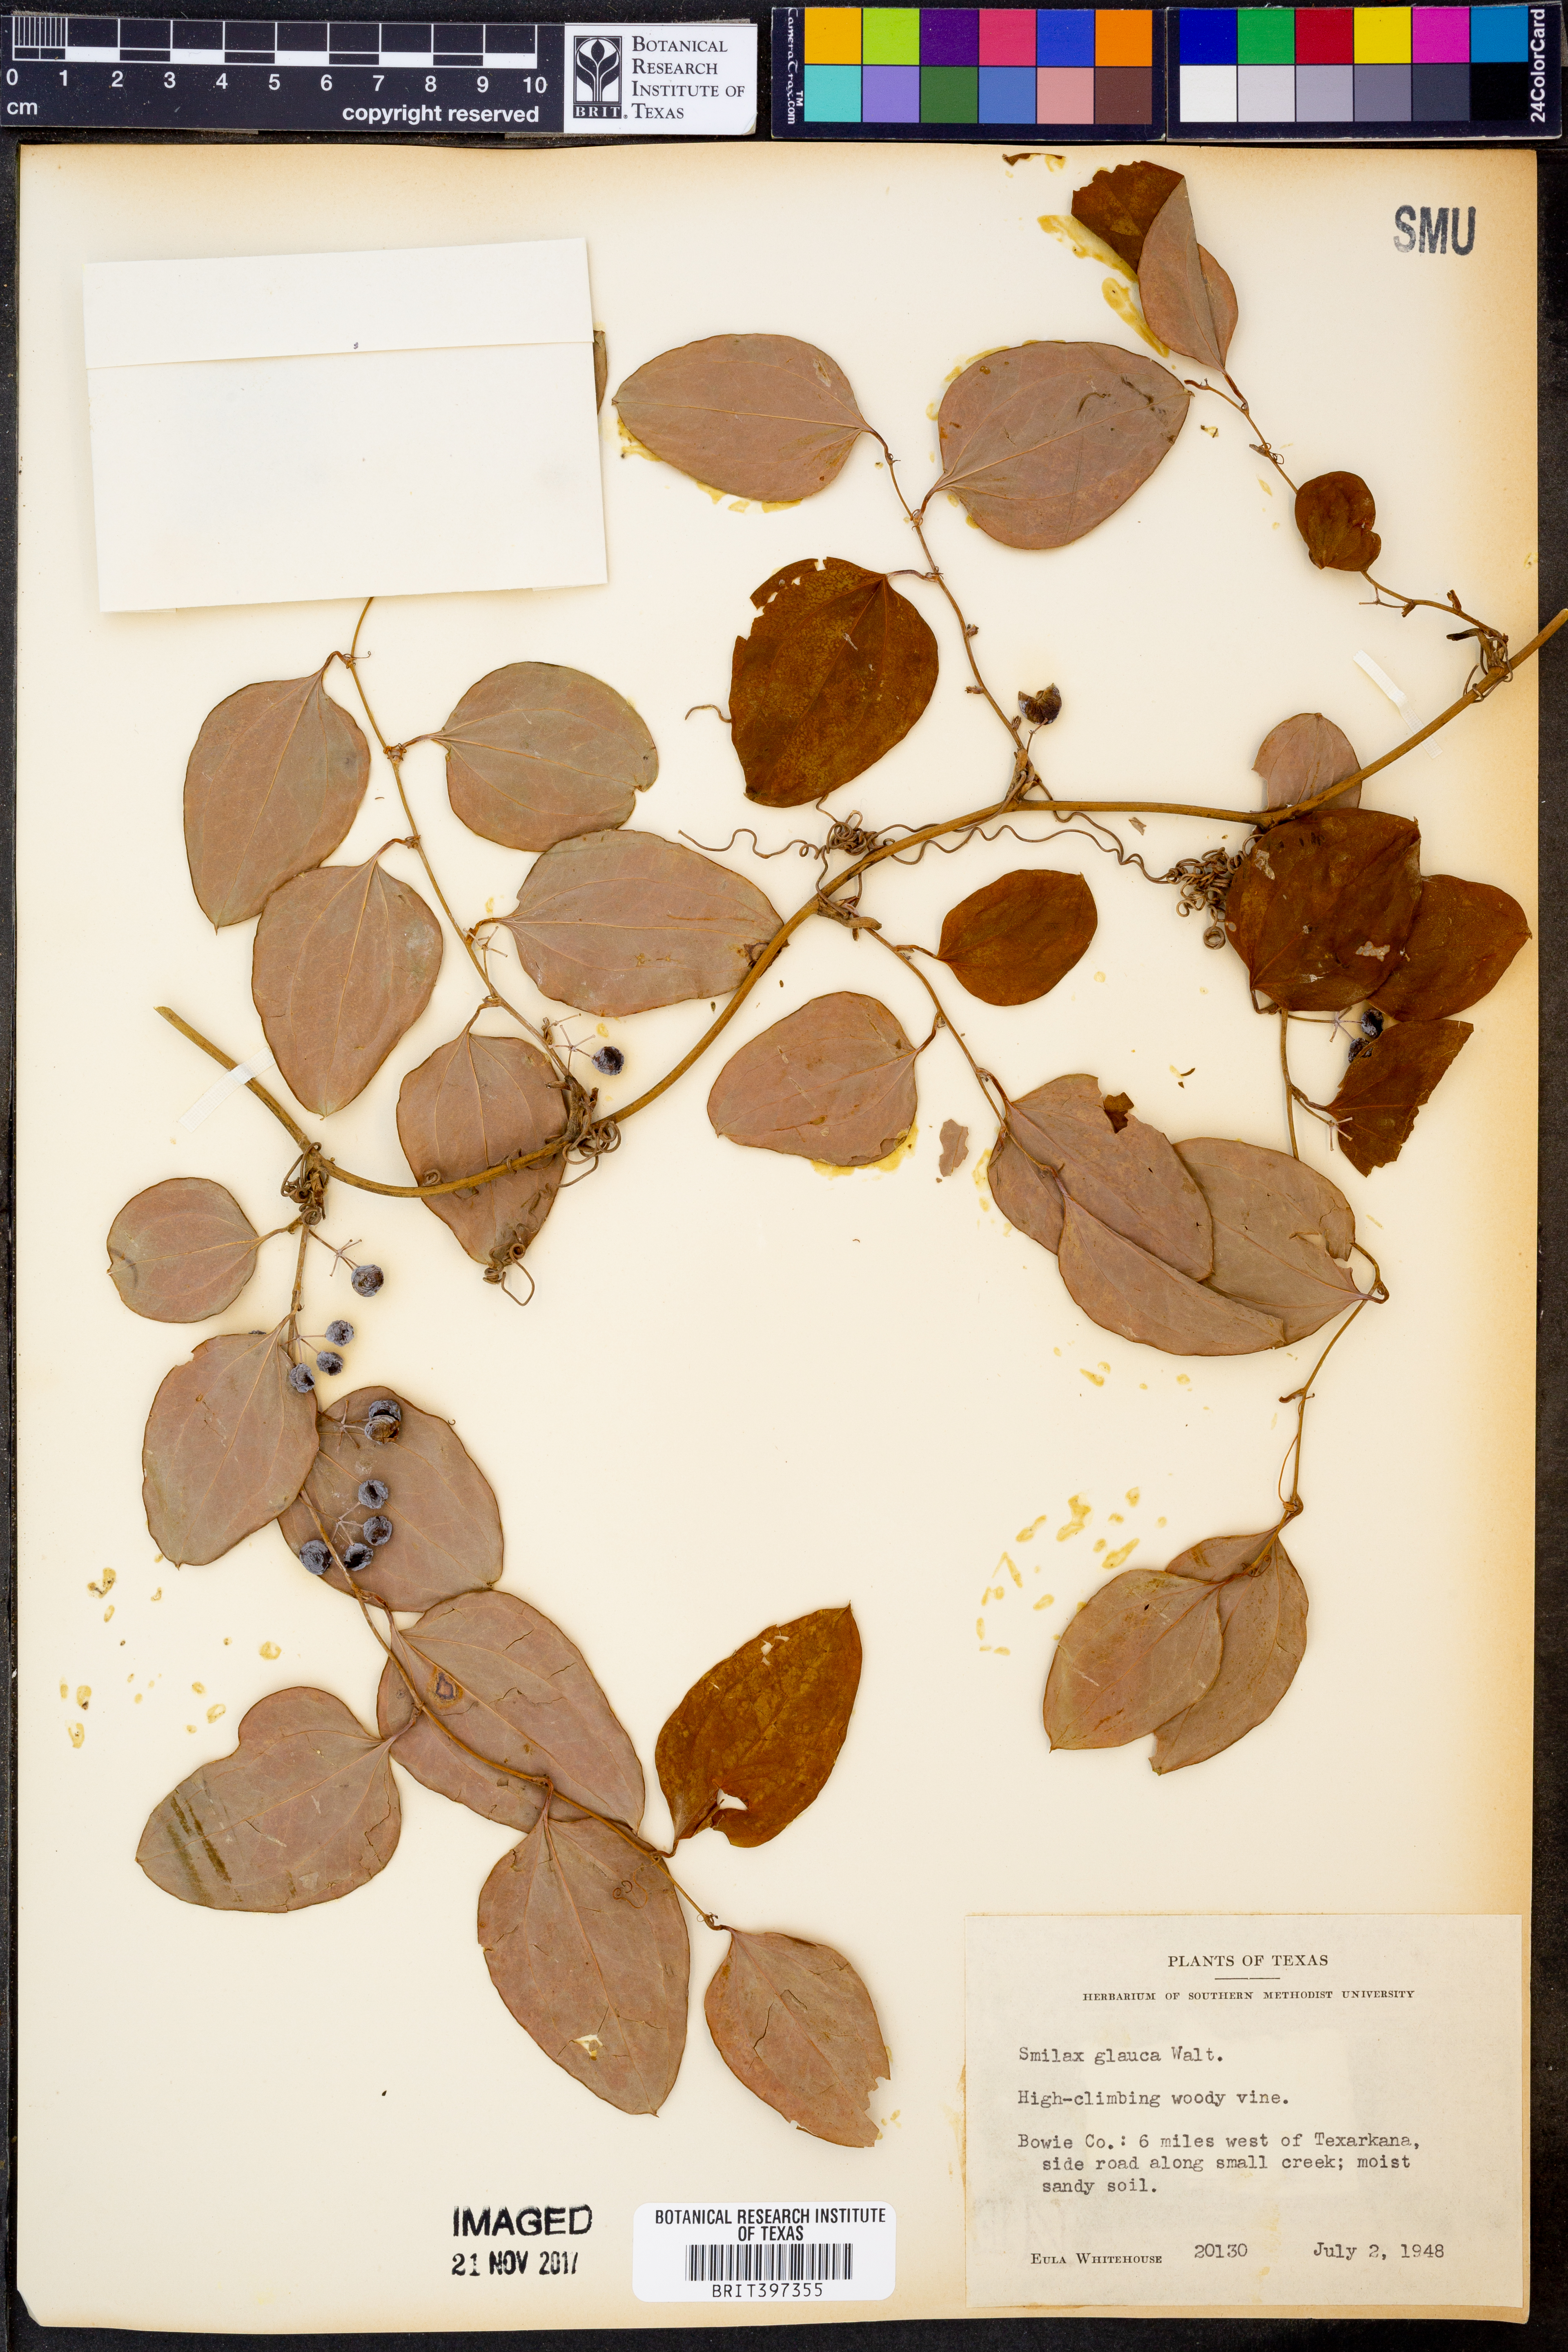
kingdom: Plantae
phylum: Tracheophyta
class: Liliopsida
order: Liliales
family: Smilacaceae
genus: Smilax
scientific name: Smilax glauca
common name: Cat greenbrier
